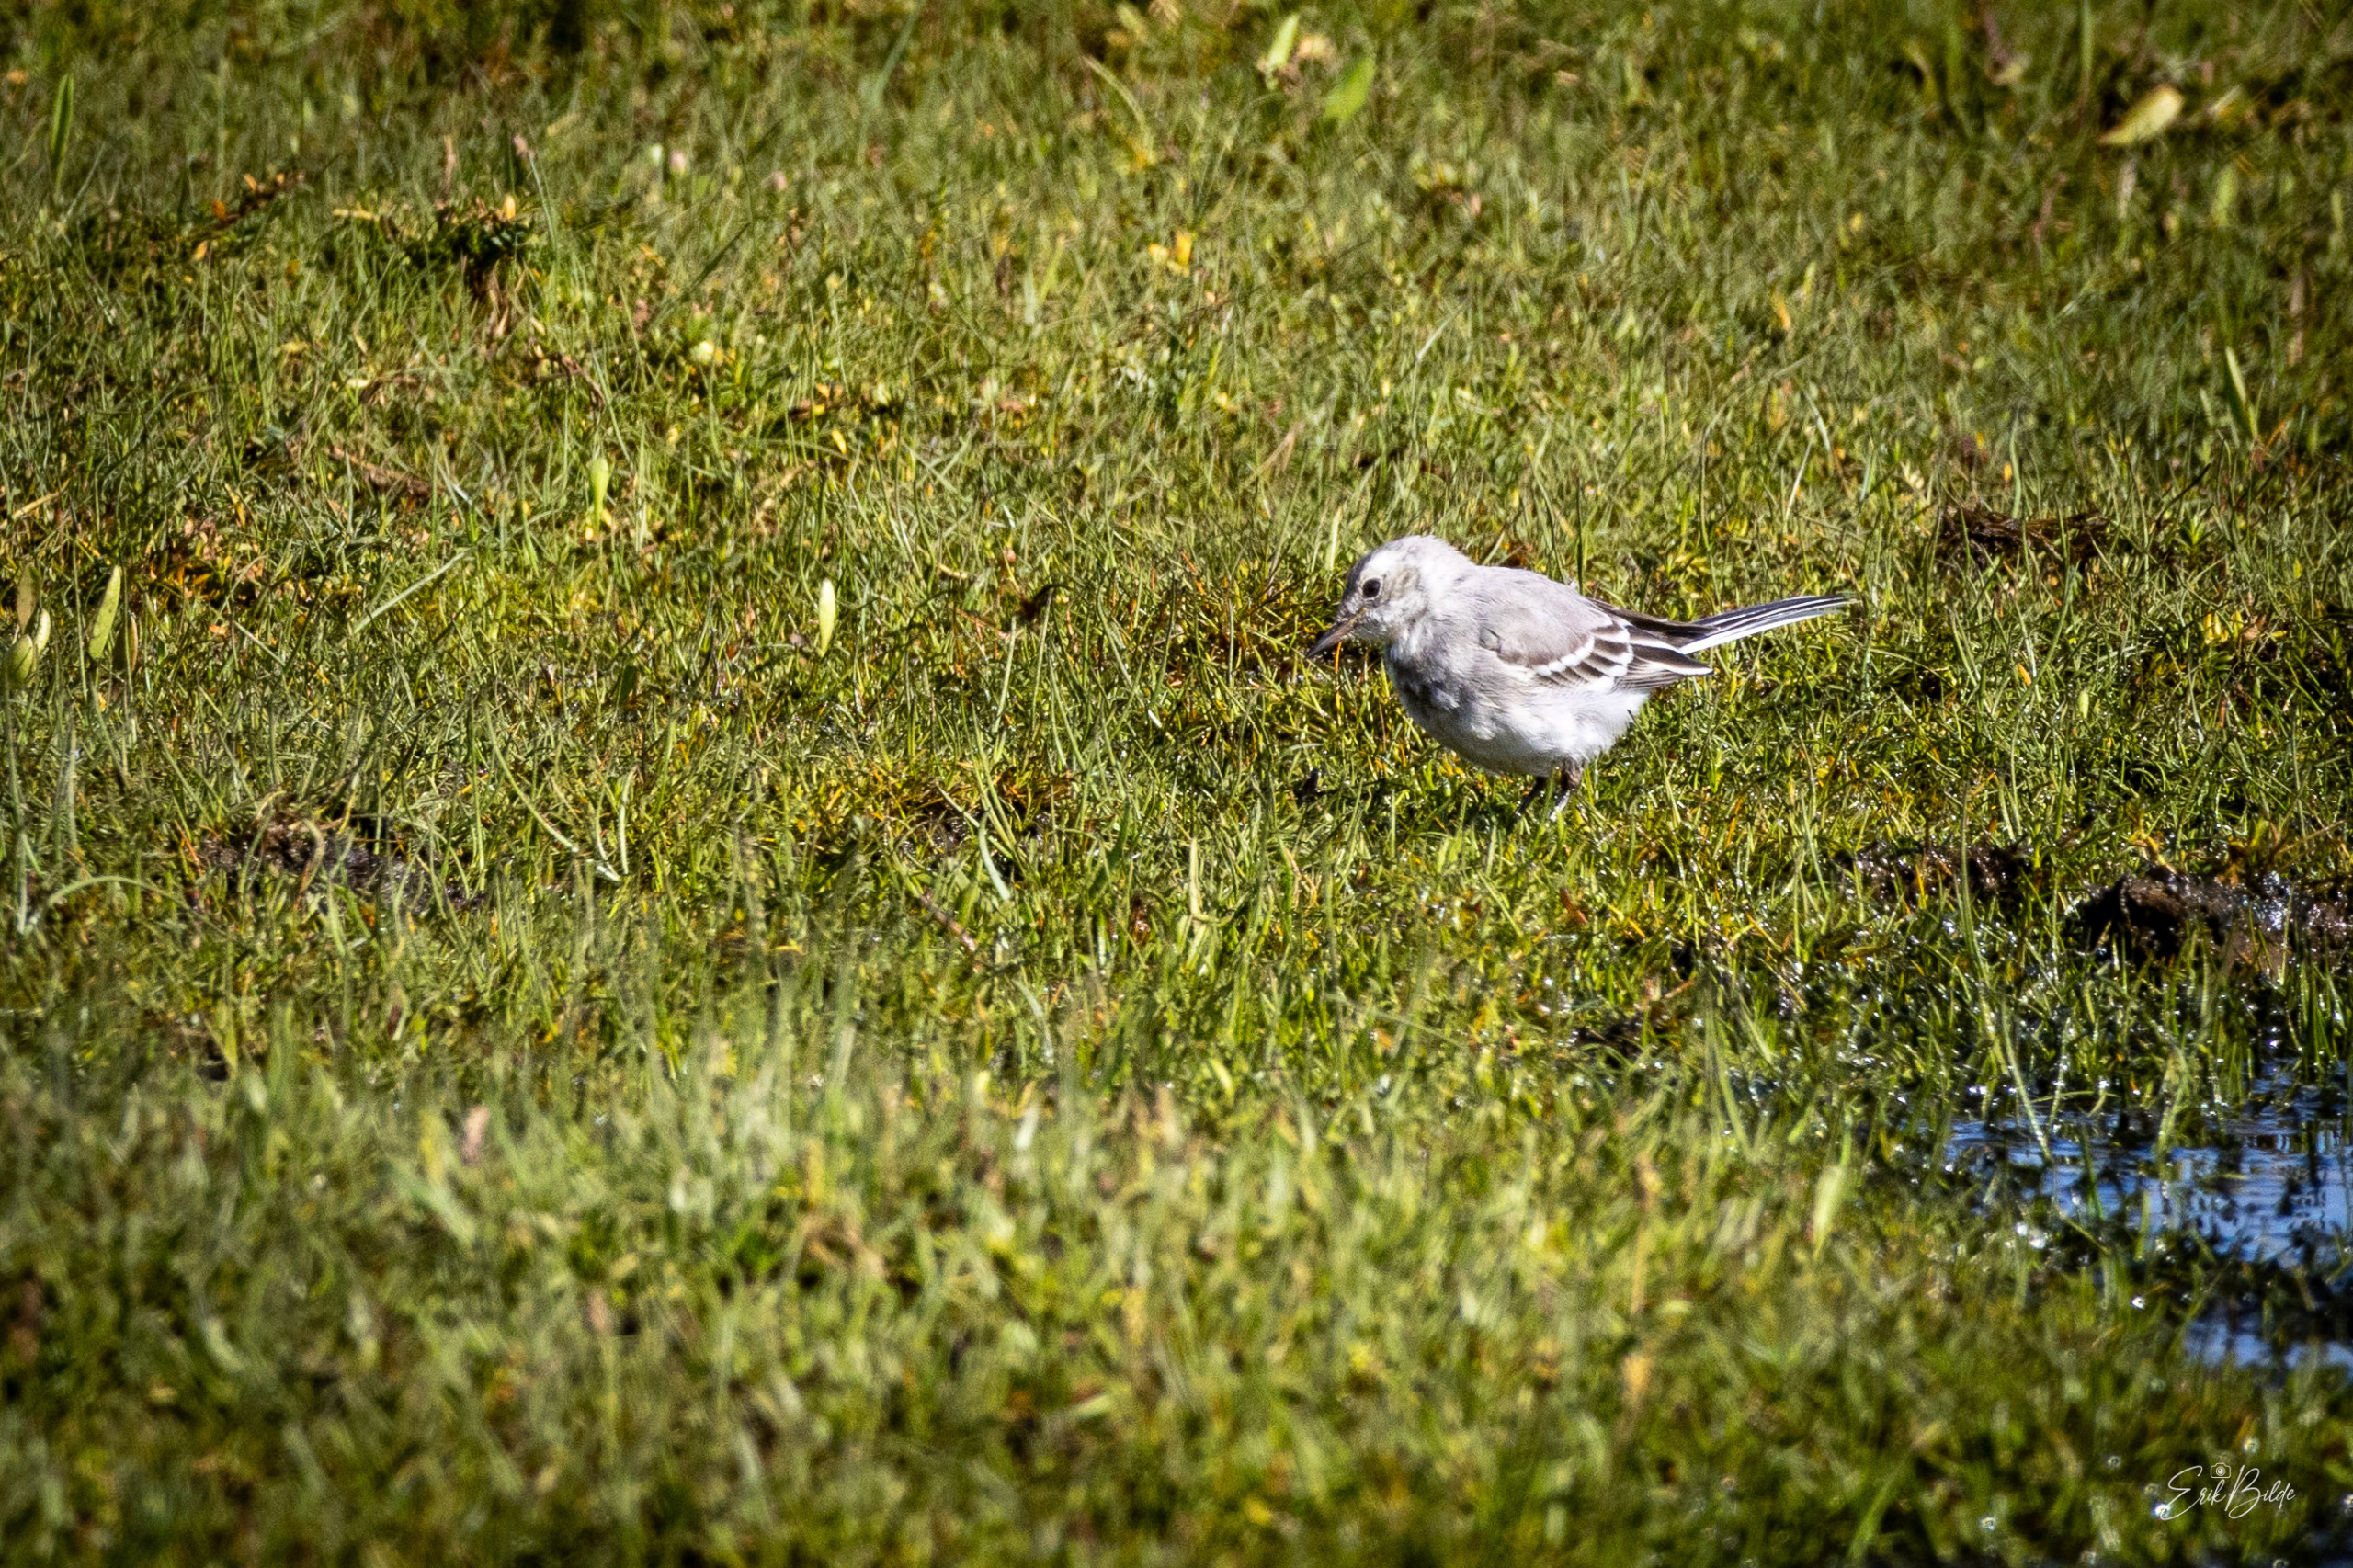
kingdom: Animalia
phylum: Chordata
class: Aves
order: Passeriformes
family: Motacillidae
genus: Motacilla
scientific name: Motacilla alba
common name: Hvid vipstjert
